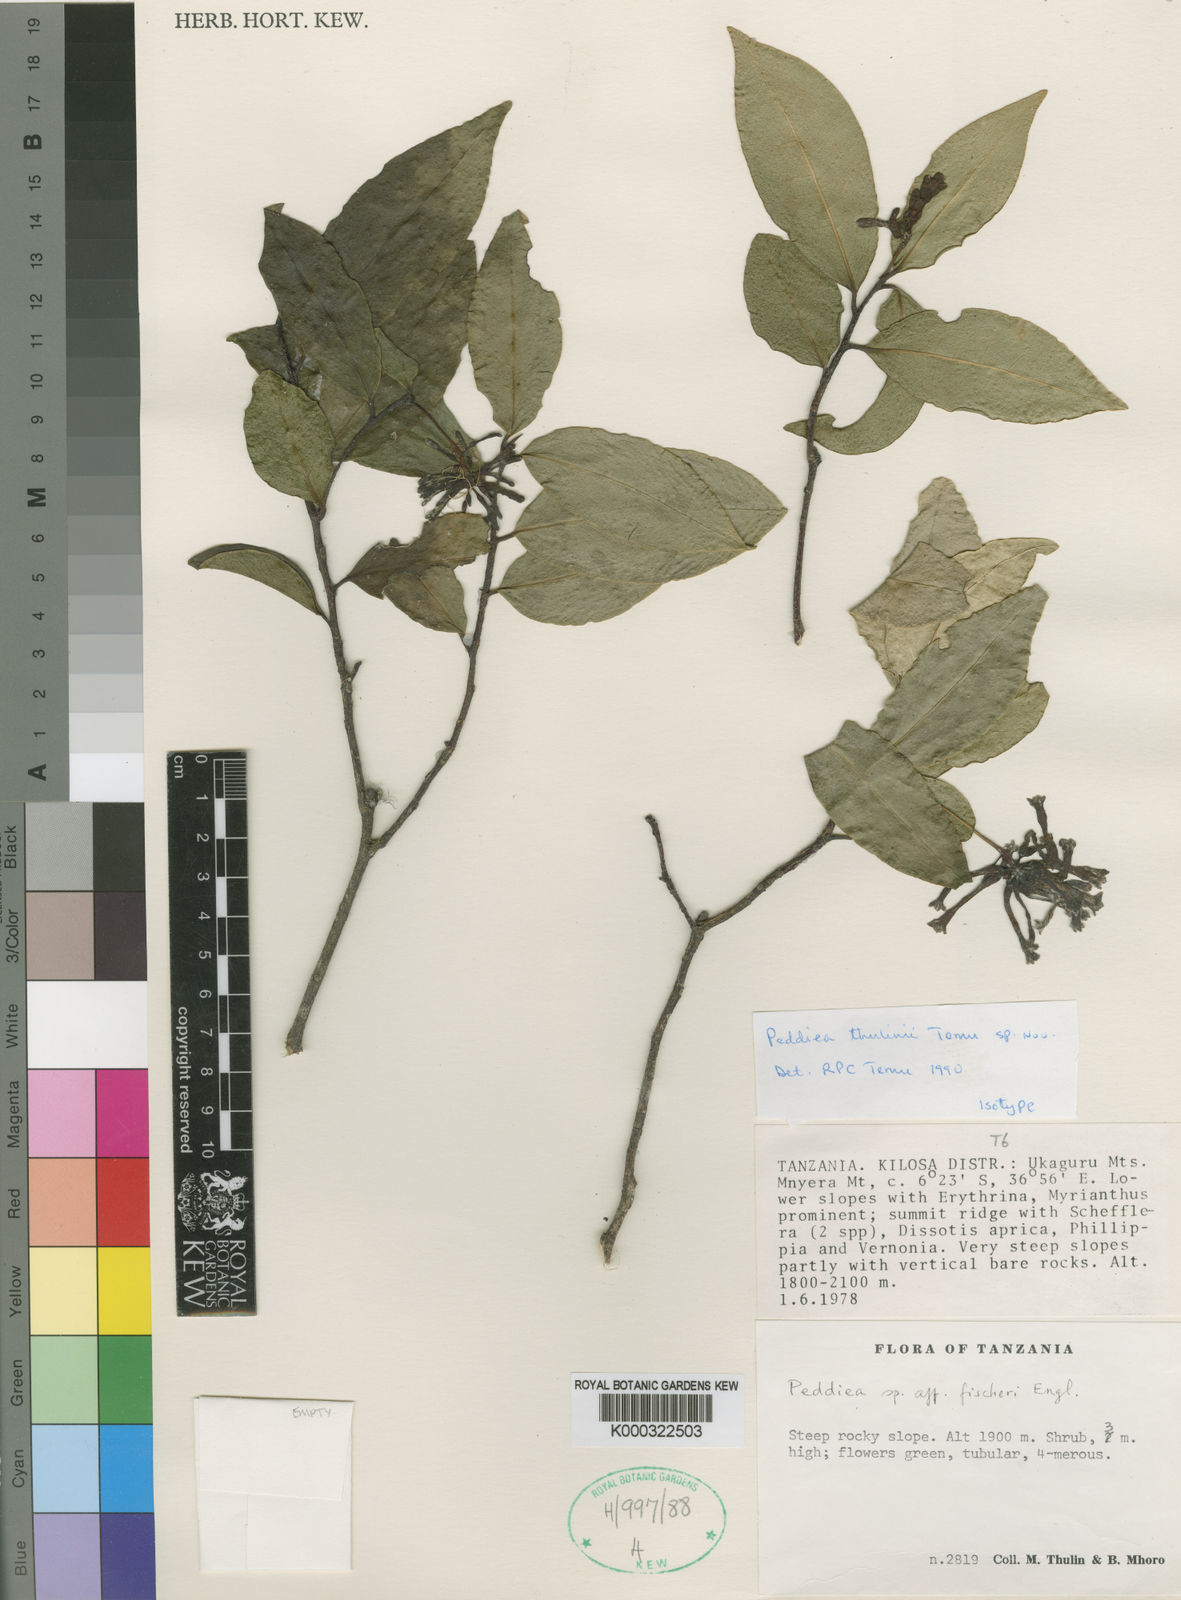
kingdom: Plantae
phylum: Tracheophyta
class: Magnoliopsida
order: Malvales
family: Thymelaeaceae
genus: Peddiea
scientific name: Peddiea
